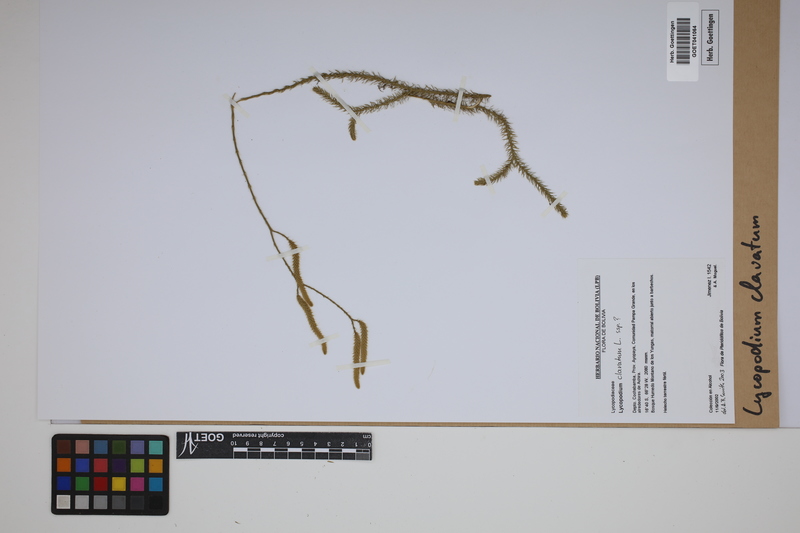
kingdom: Plantae
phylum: Tracheophyta
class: Lycopodiopsida
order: Lycopodiales
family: Lycopodiaceae
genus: Lycopodium
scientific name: Lycopodium clavatum
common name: Stag's-horn clubmoss
